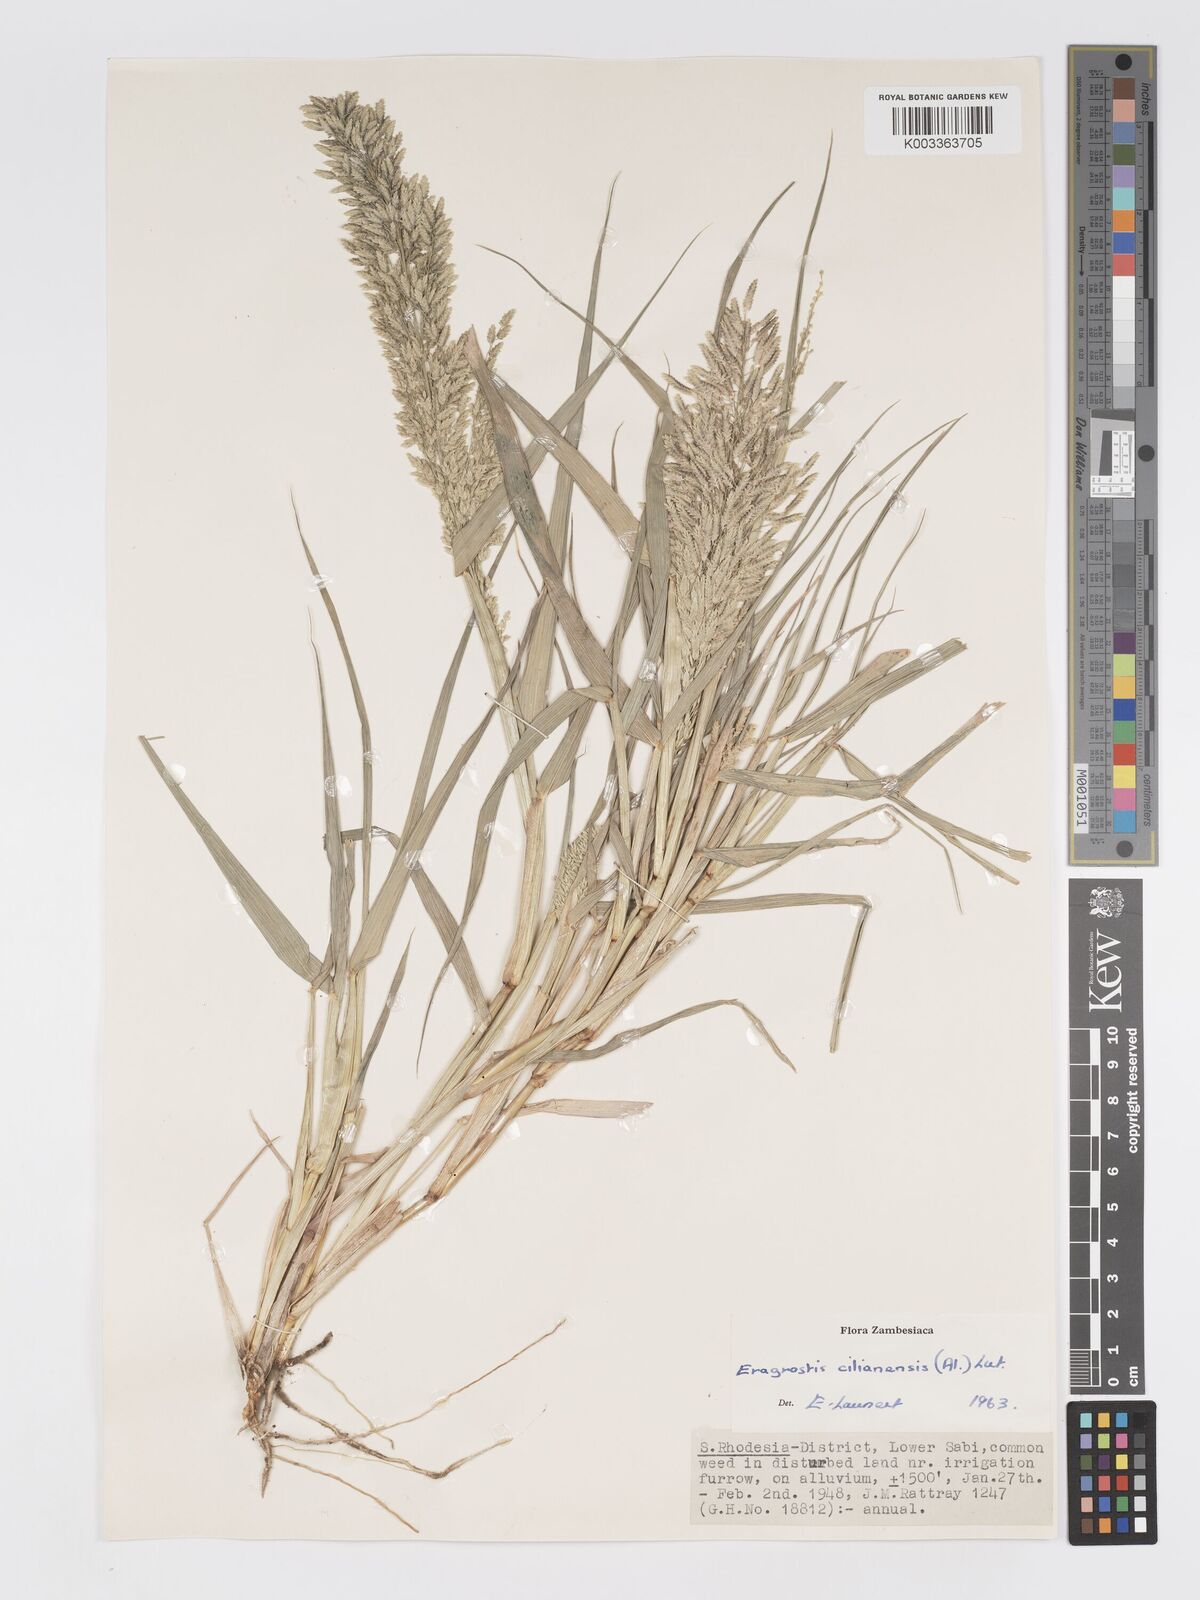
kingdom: Plantae
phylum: Tracheophyta
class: Liliopsida
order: Poales
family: Poaceae
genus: Eragrostis
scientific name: Eragrostis cilianensis
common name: Stinkgrass
